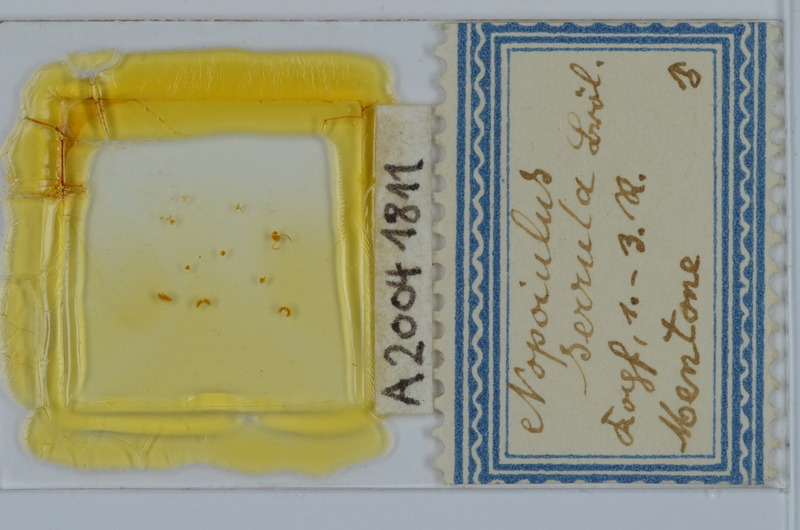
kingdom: Animalia
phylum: Arthropoda
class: Diplopoda
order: Julida
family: Blaniulidae
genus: Nopoiulus
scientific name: Nopoiulus
